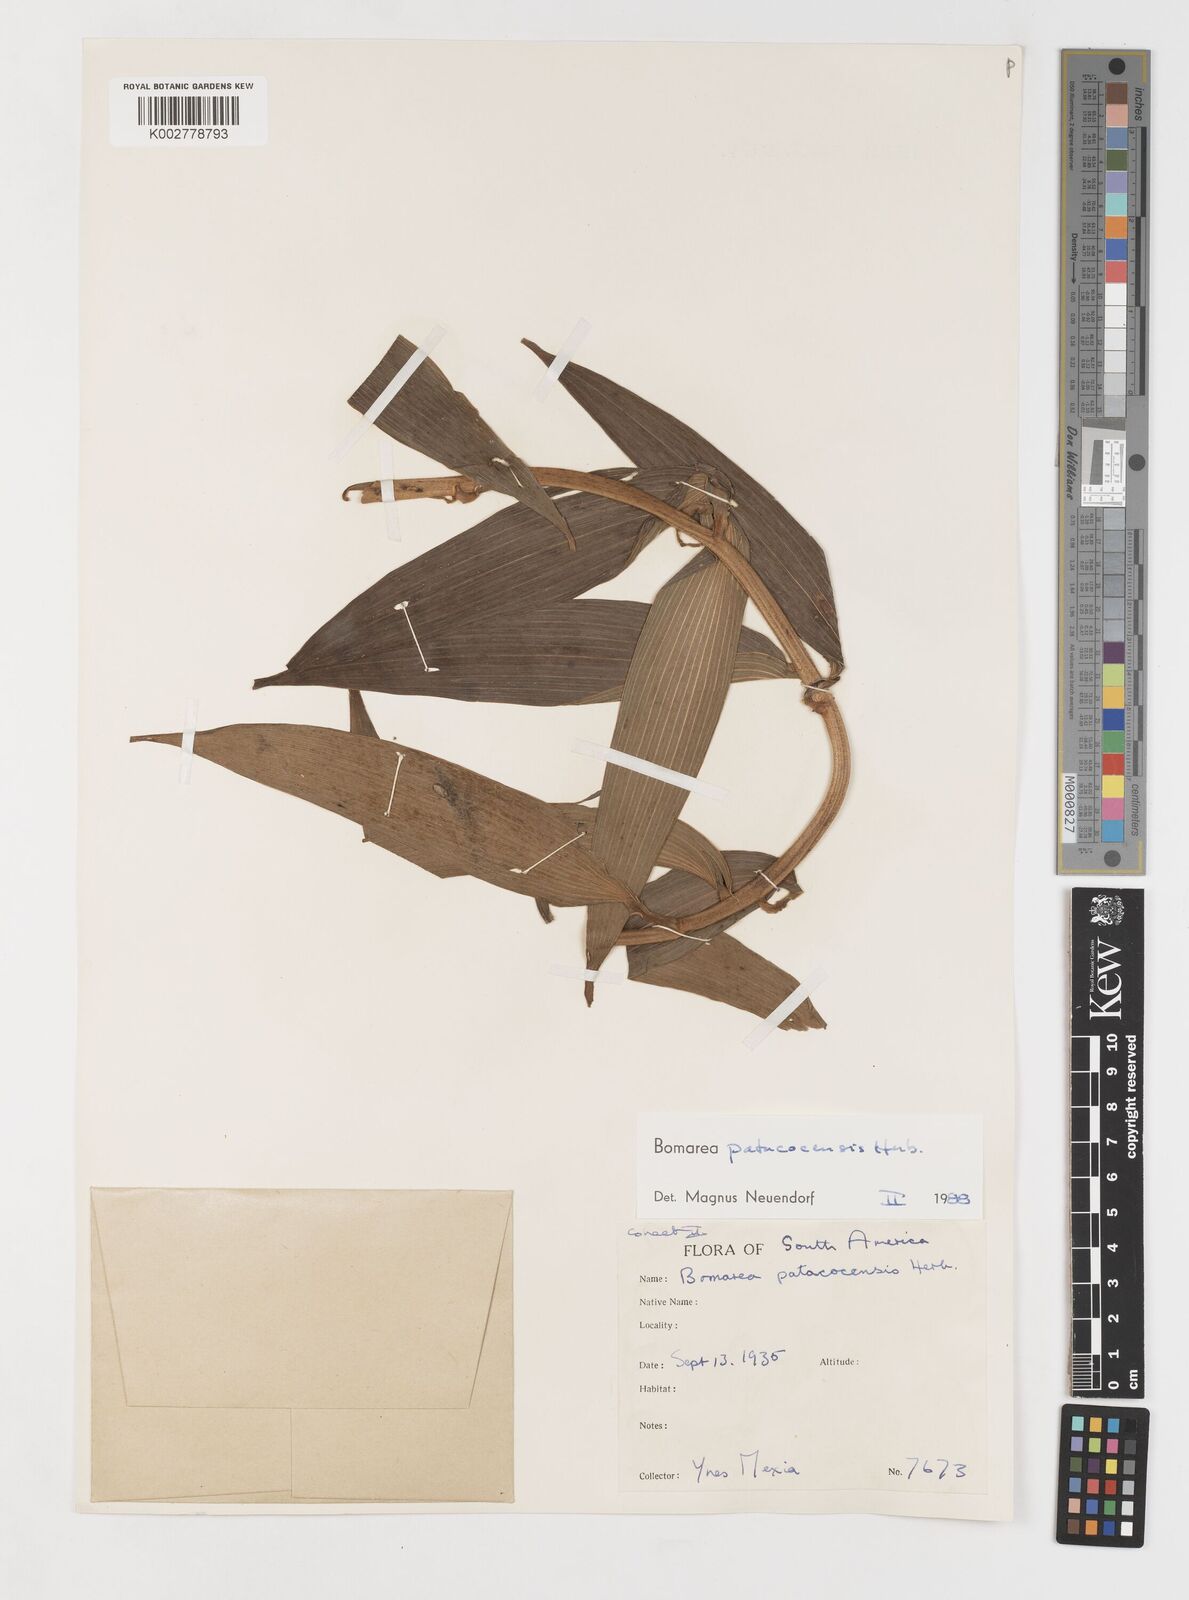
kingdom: Plantae
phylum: Tracheophyta
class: Liliopsida
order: Liliales
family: Alstroemeriaceae
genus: Bomarea
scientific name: Bomarea patacocensis
